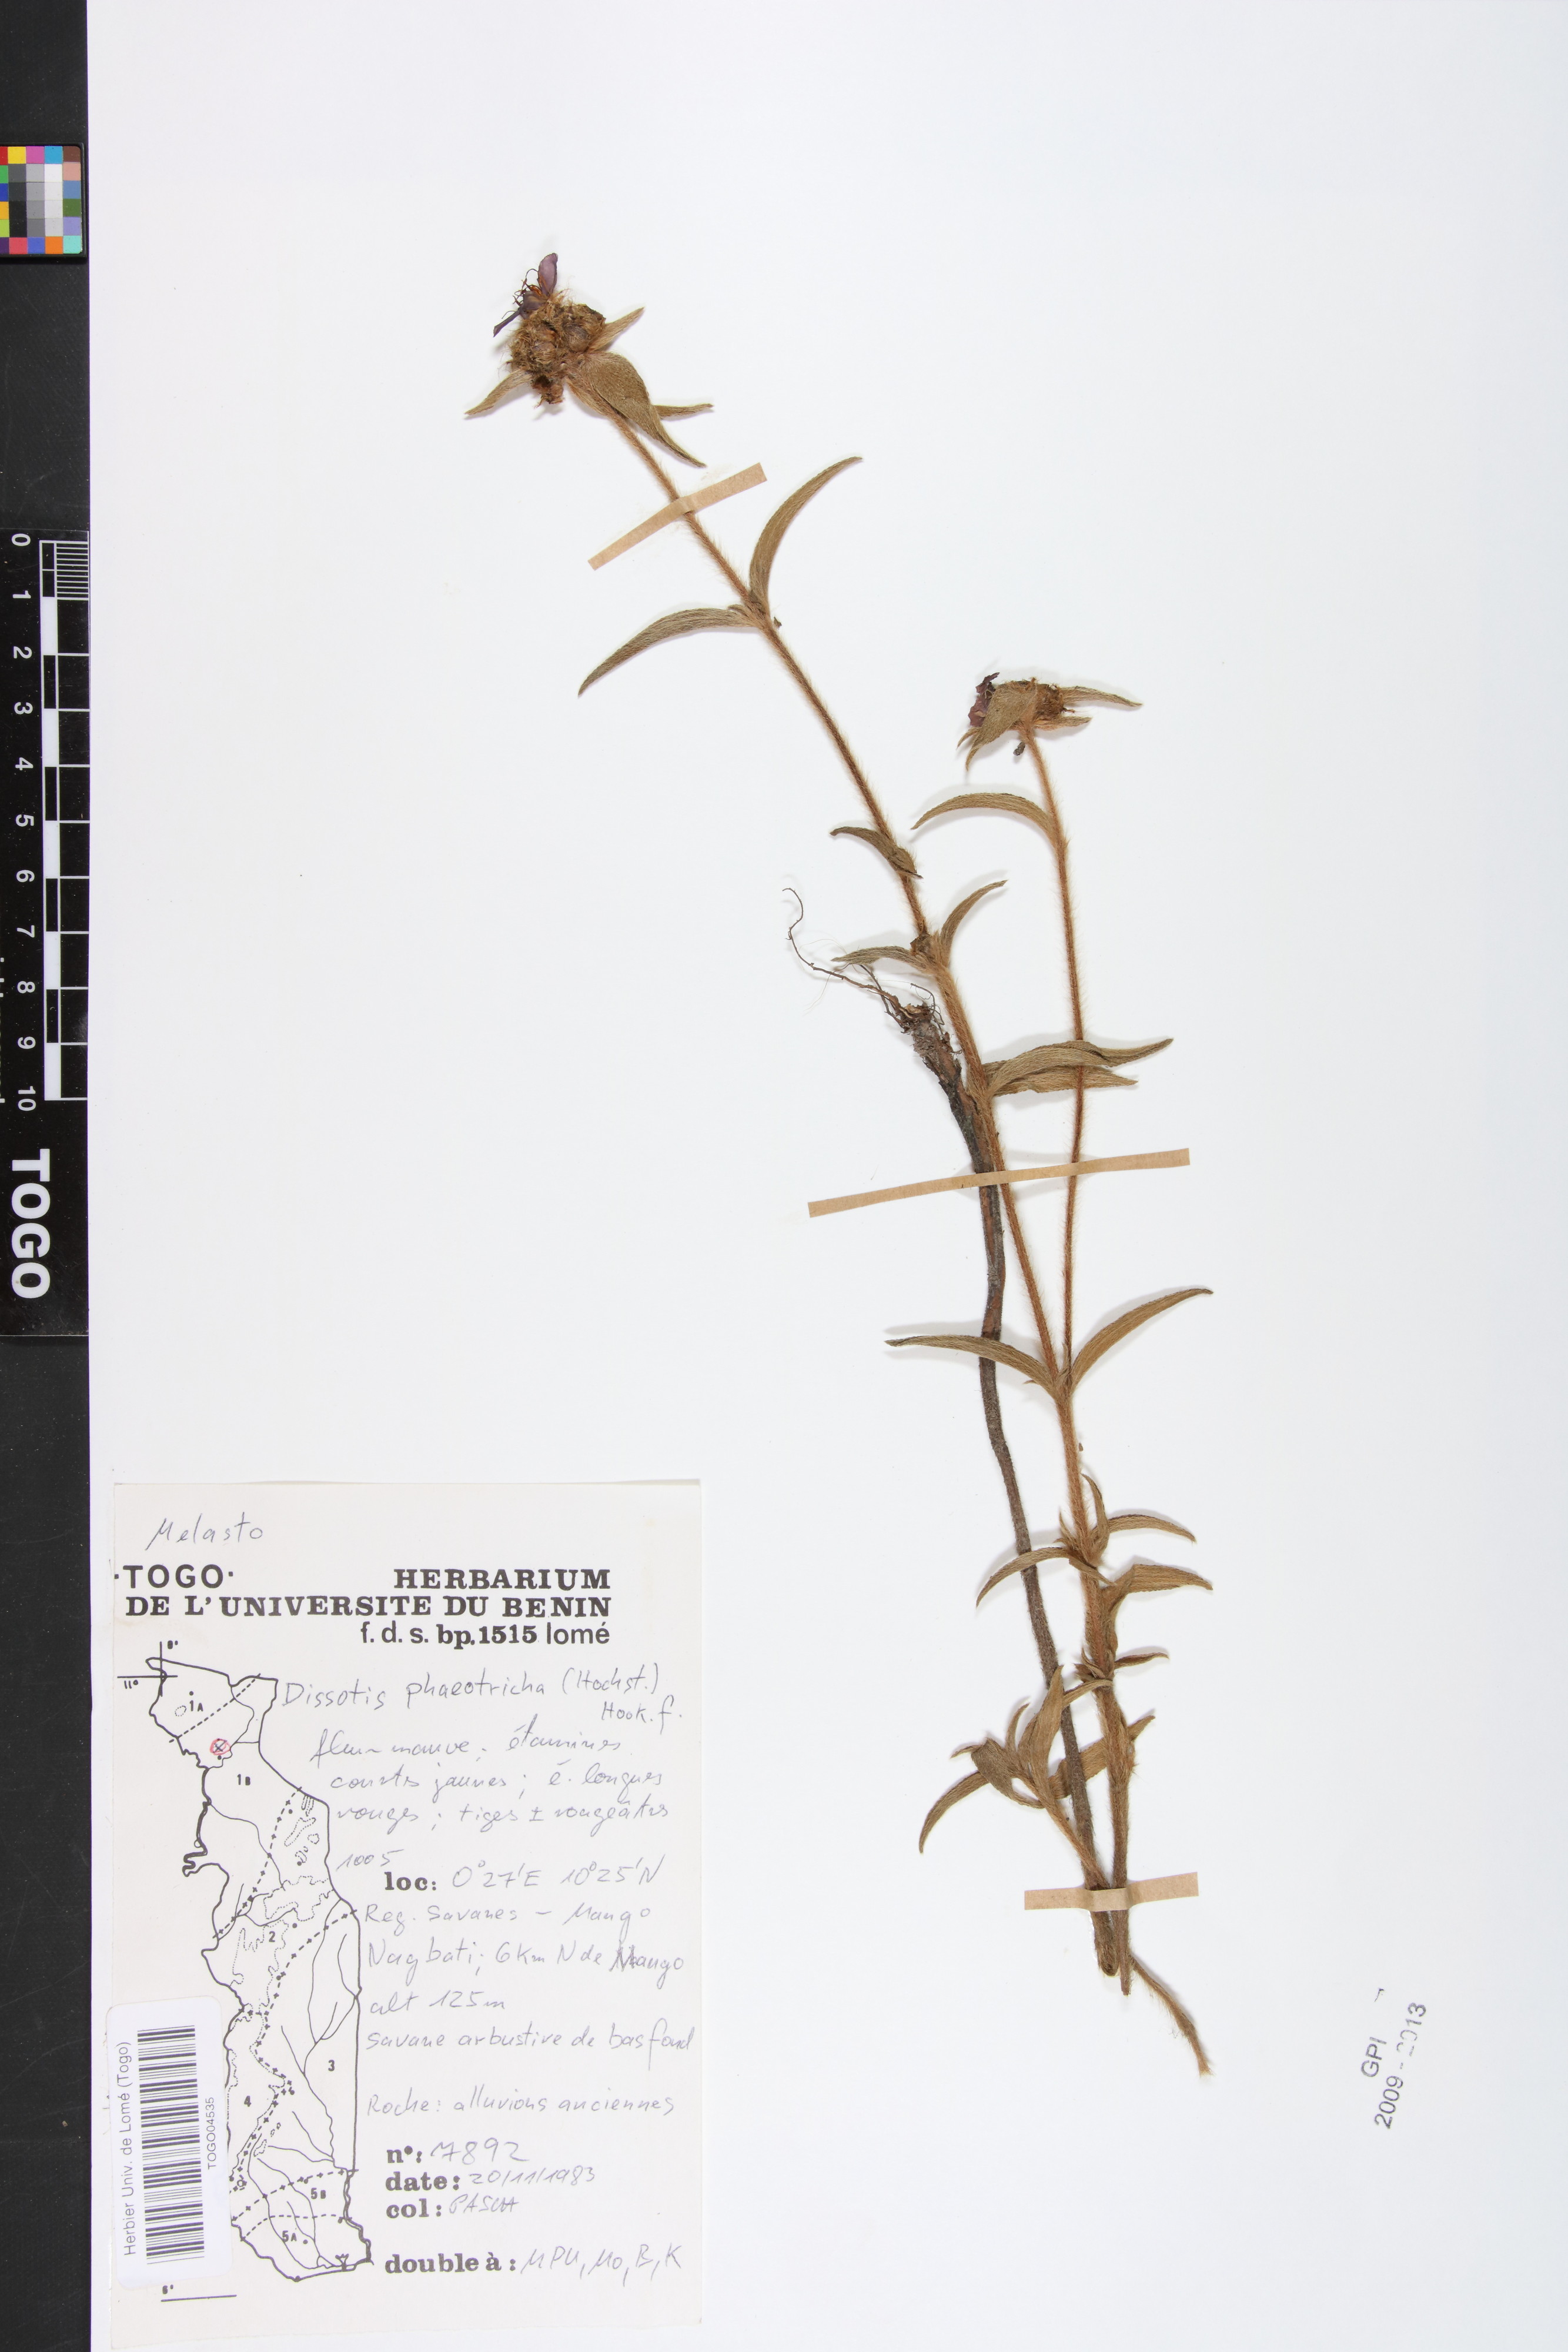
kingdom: Plantae
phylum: Tracheophyta
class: Magnoliopsida
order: Myrtales
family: Melastomataceae
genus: Antherotoma
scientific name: Antherotoma phaeotricha
